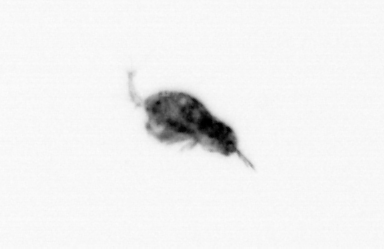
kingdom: Animalia
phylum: Arthropoda
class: Copepoda
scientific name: Copepoda
